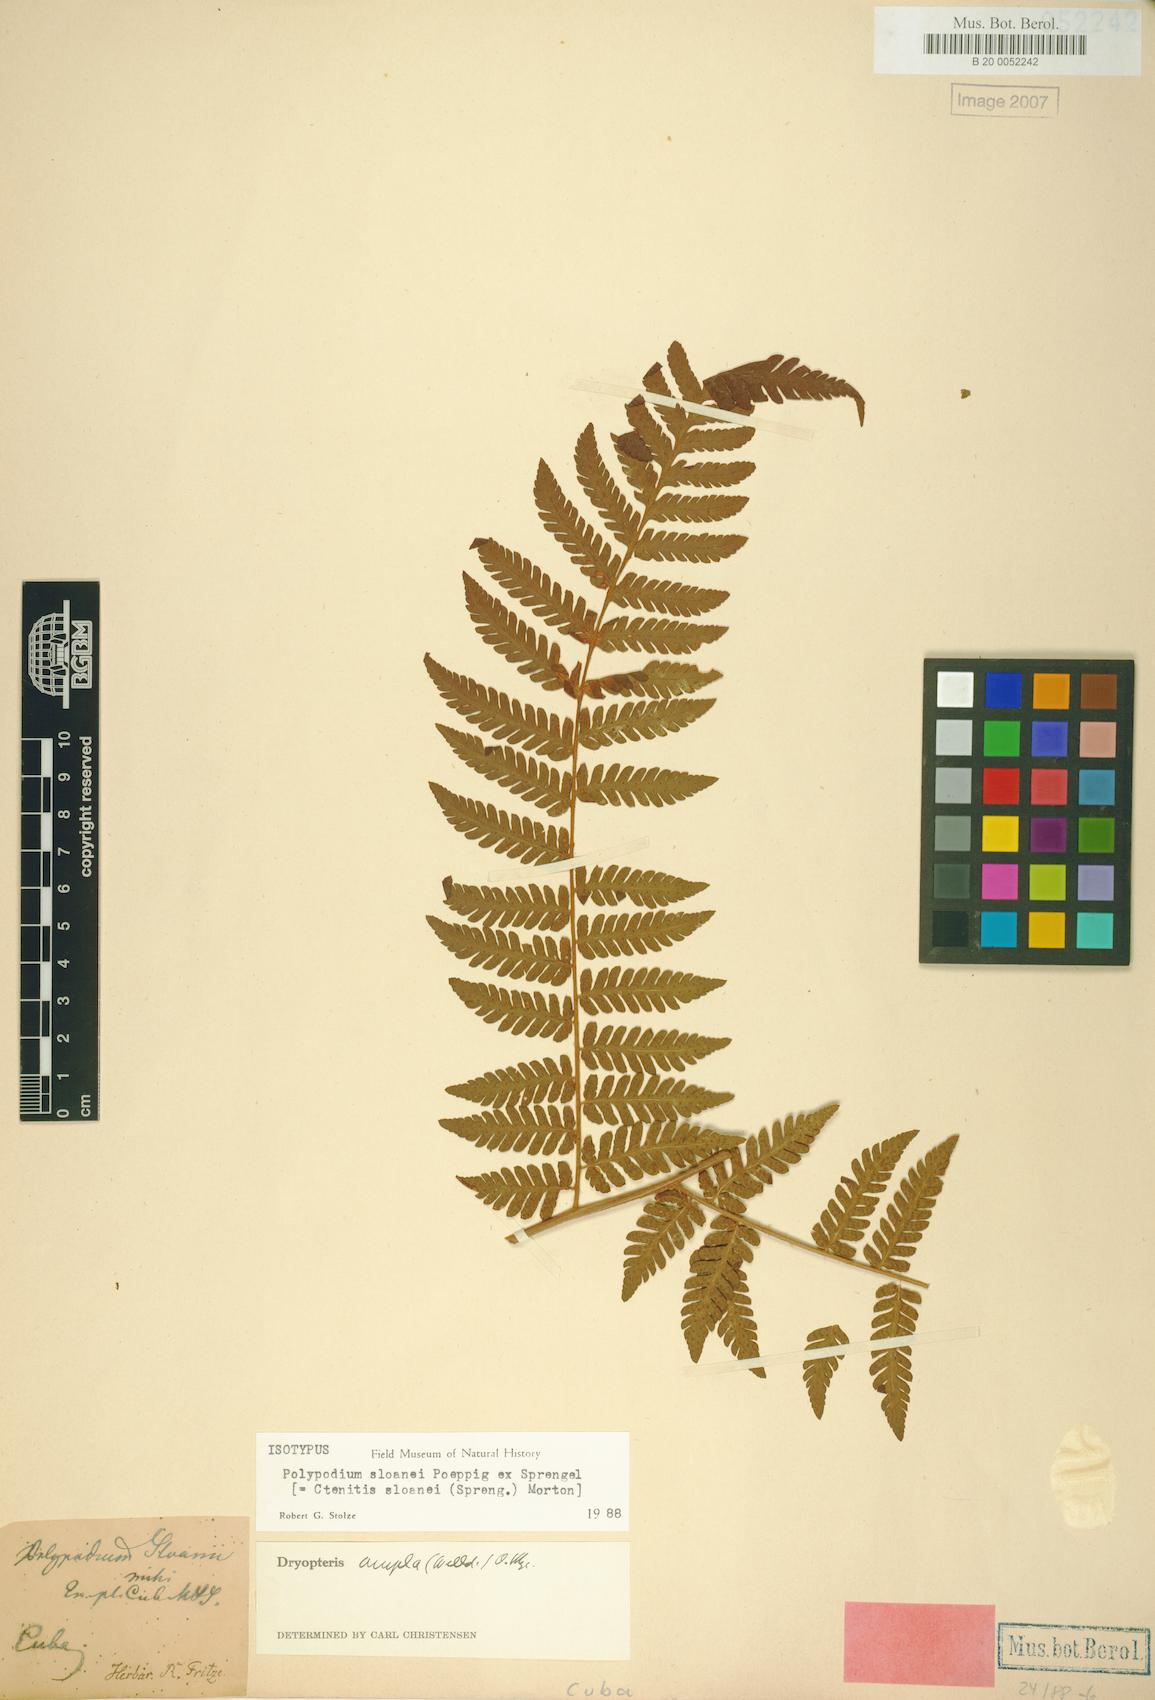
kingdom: Plantae
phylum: Tracheophyta
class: Polypodiopsida
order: Polypodiales
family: Dryopteridaceae
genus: Ctenitis
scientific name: Ctenitis sloanei
